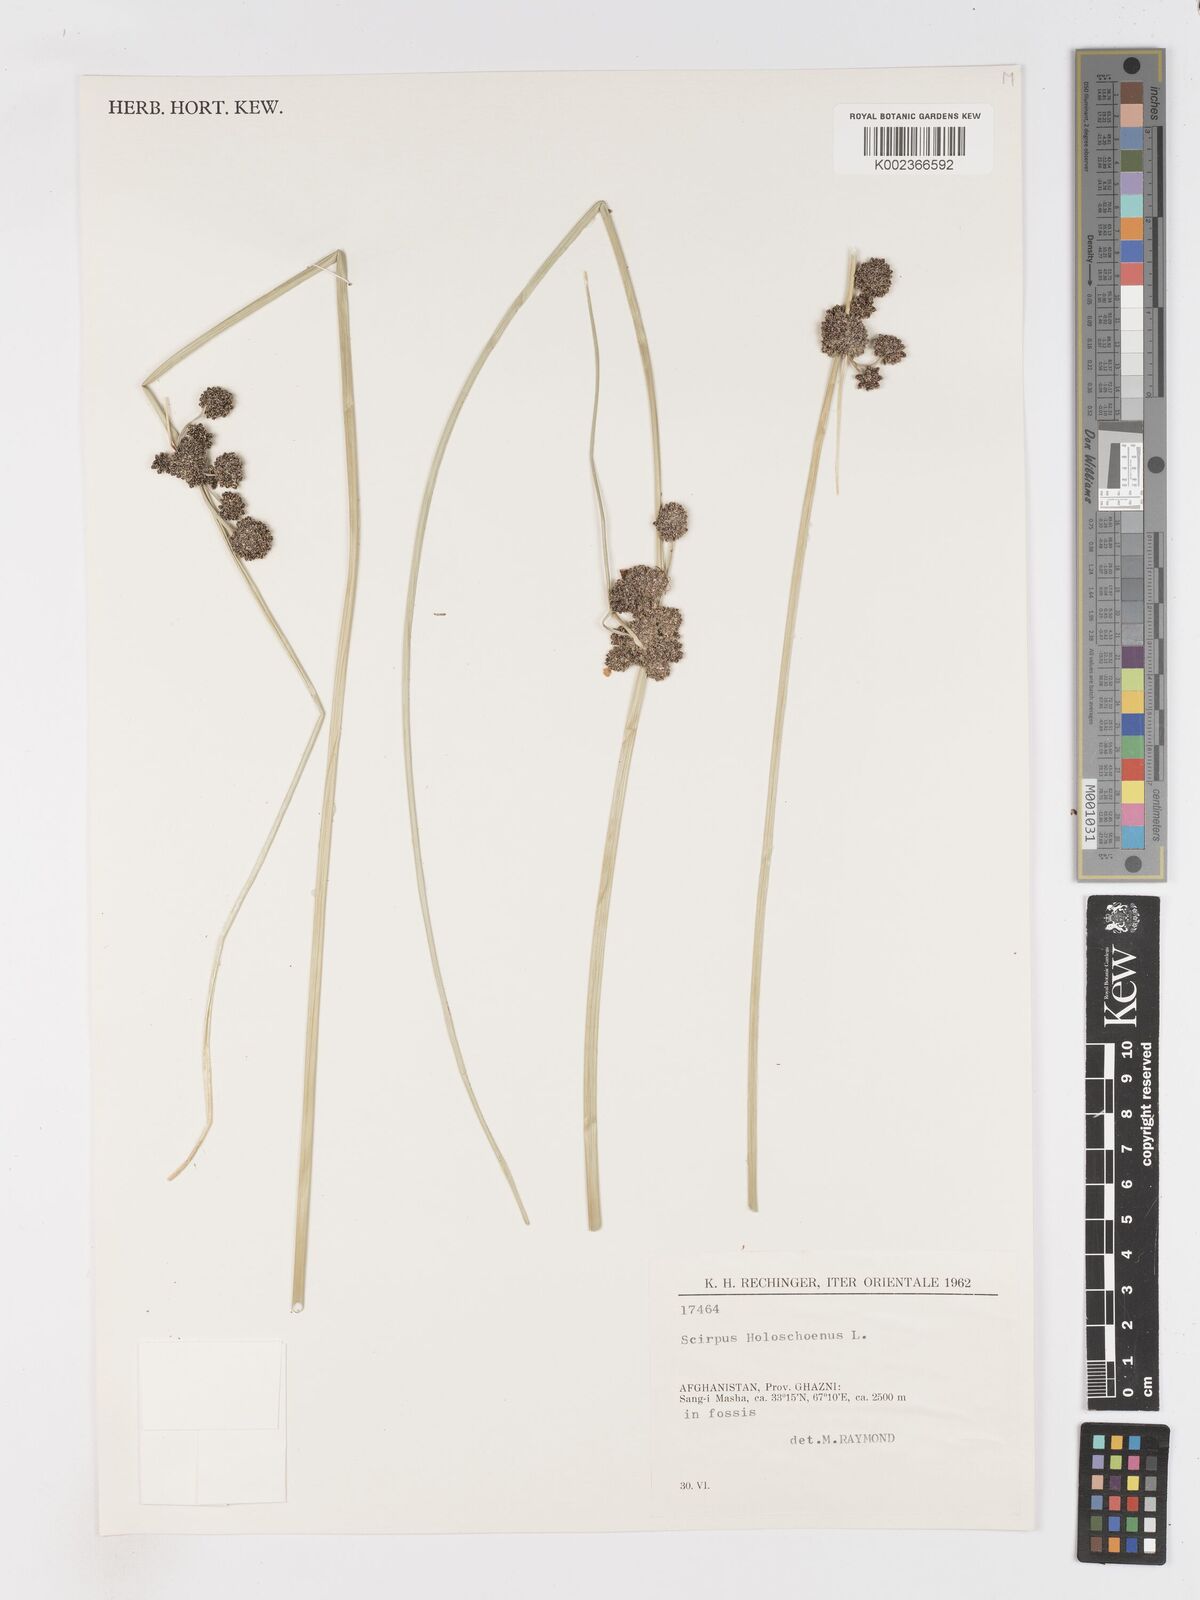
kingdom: Plantae
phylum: Tracheophyta
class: Liliopsida
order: Poales
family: Cyperaceae
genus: Scirpoides
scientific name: Scirpoides holoschoenus
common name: Round-headed club-rush
